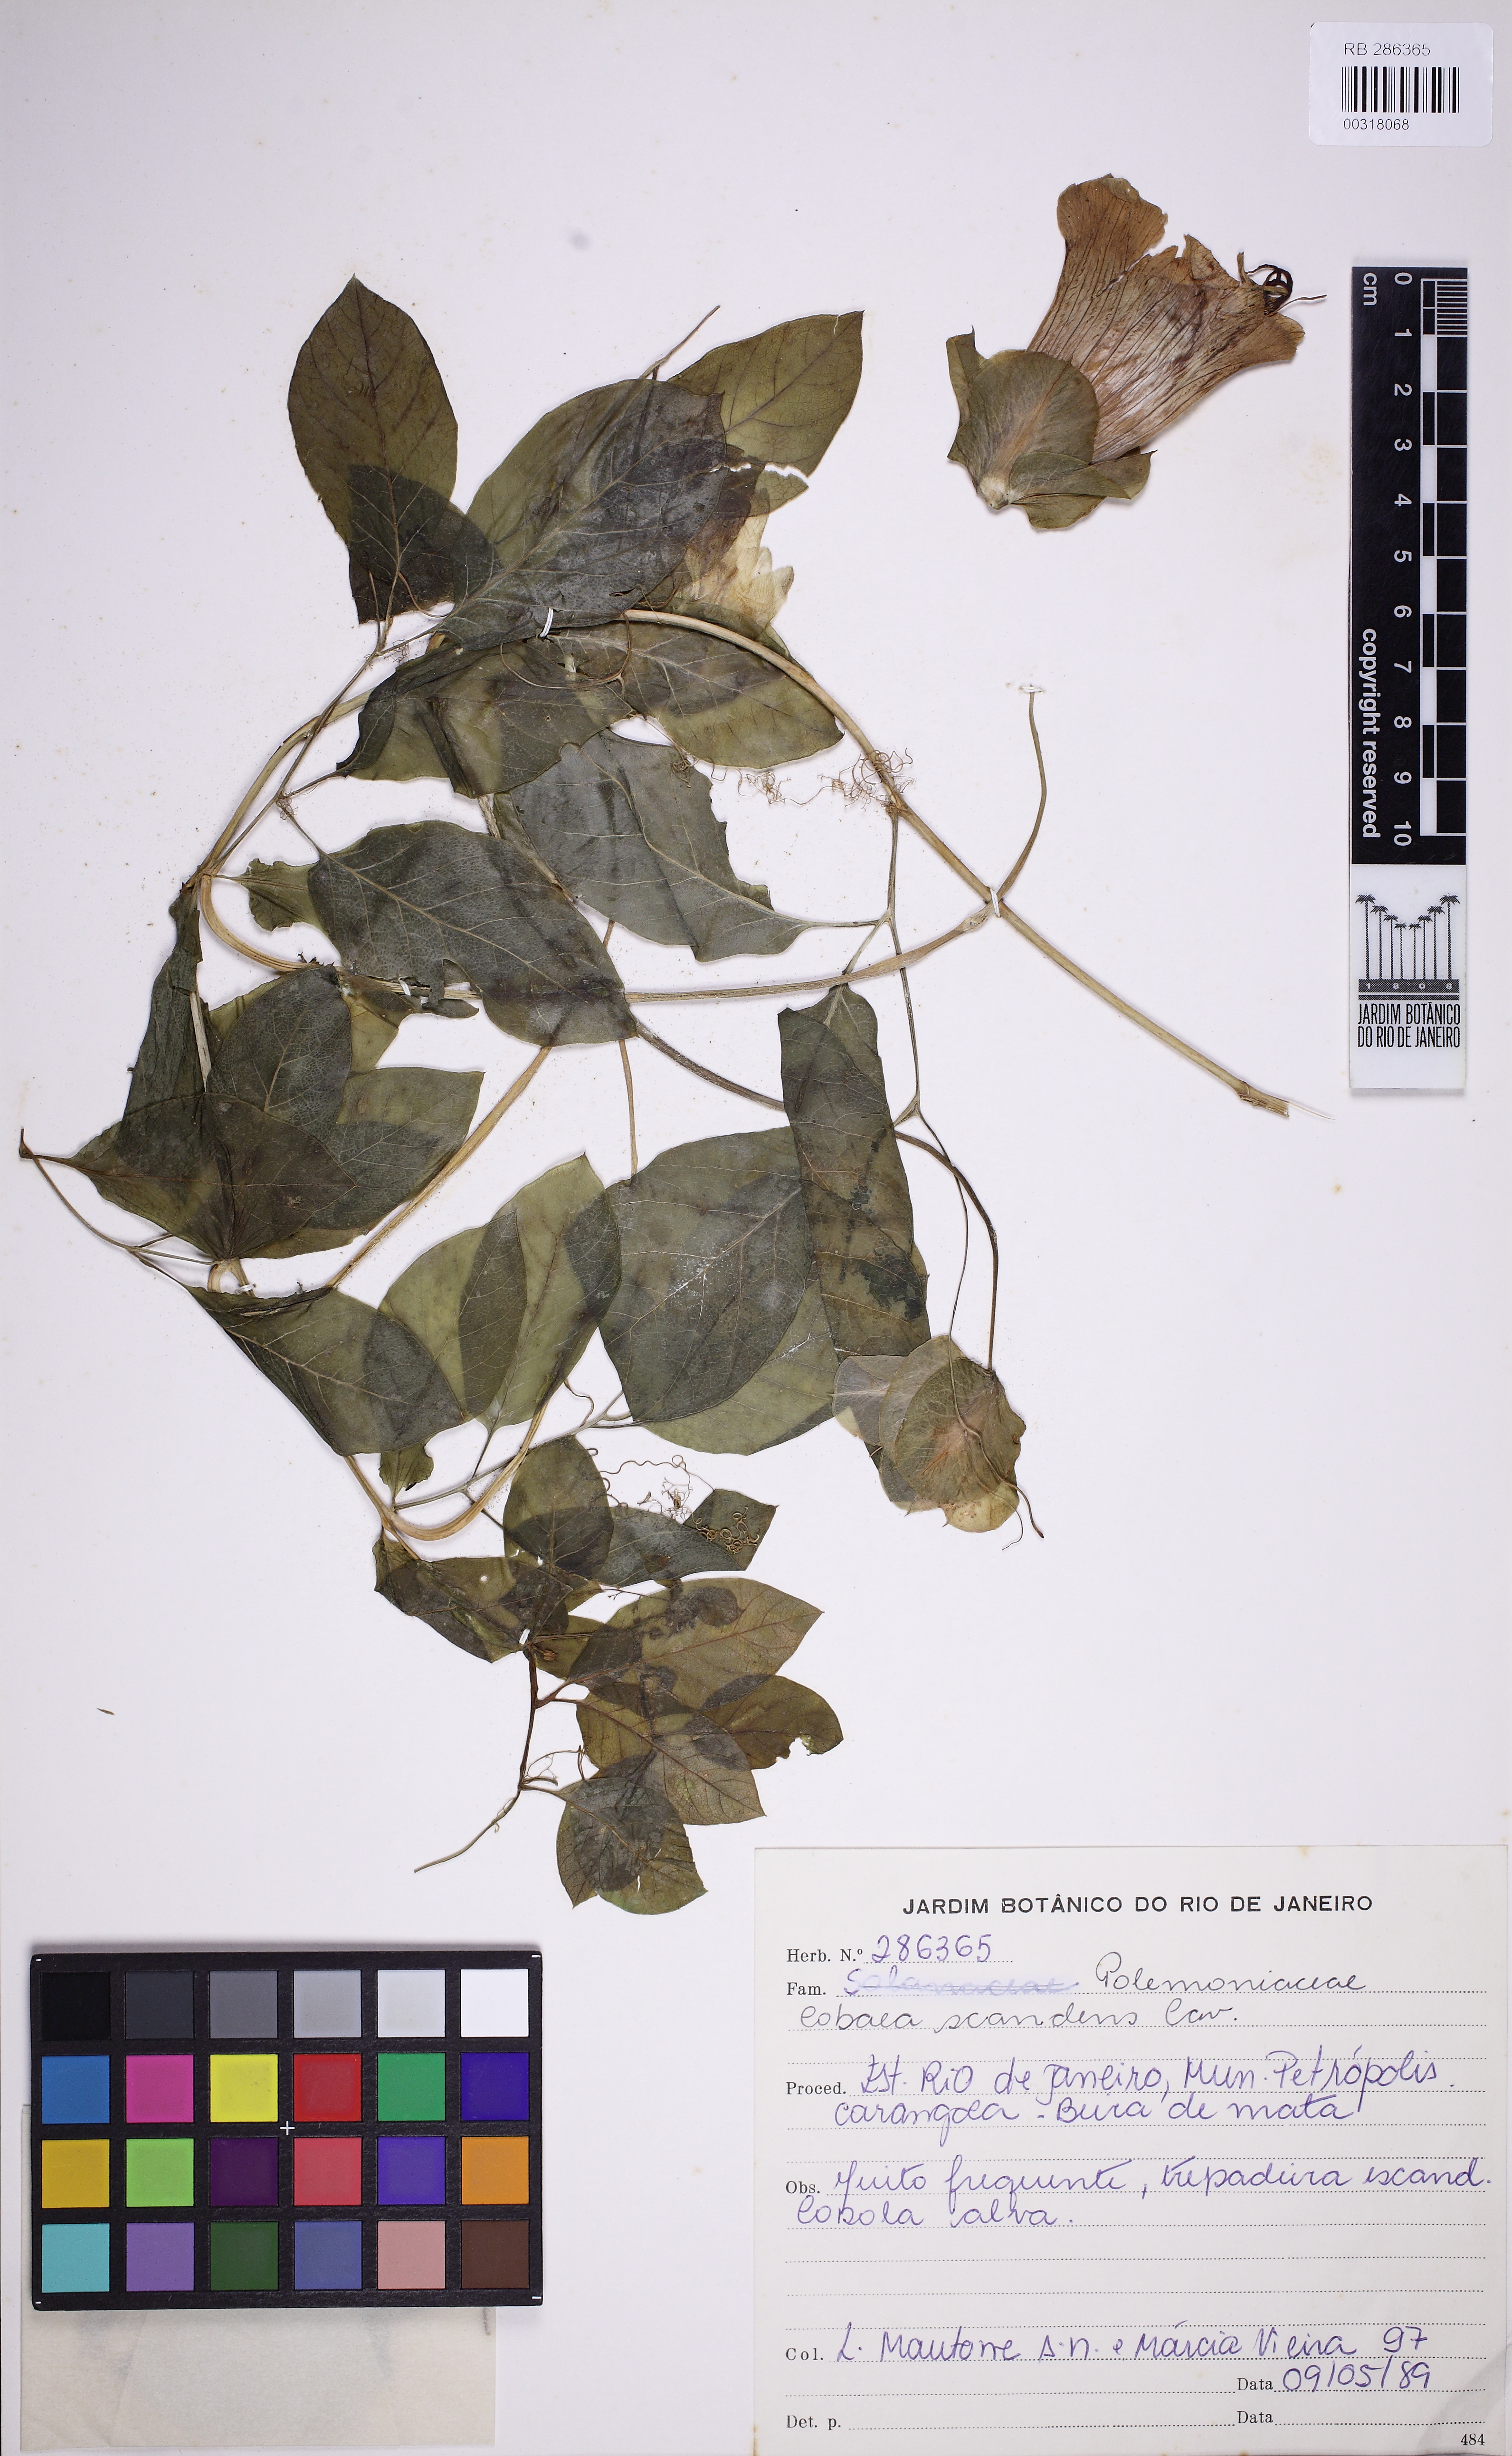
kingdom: Plantae
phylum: Tracheophyta
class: Magnoliopsida
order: Ericales
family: Polemoniaceae
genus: Cobaea
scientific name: Cobaea scandens
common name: Cup-and-saucer-vine
